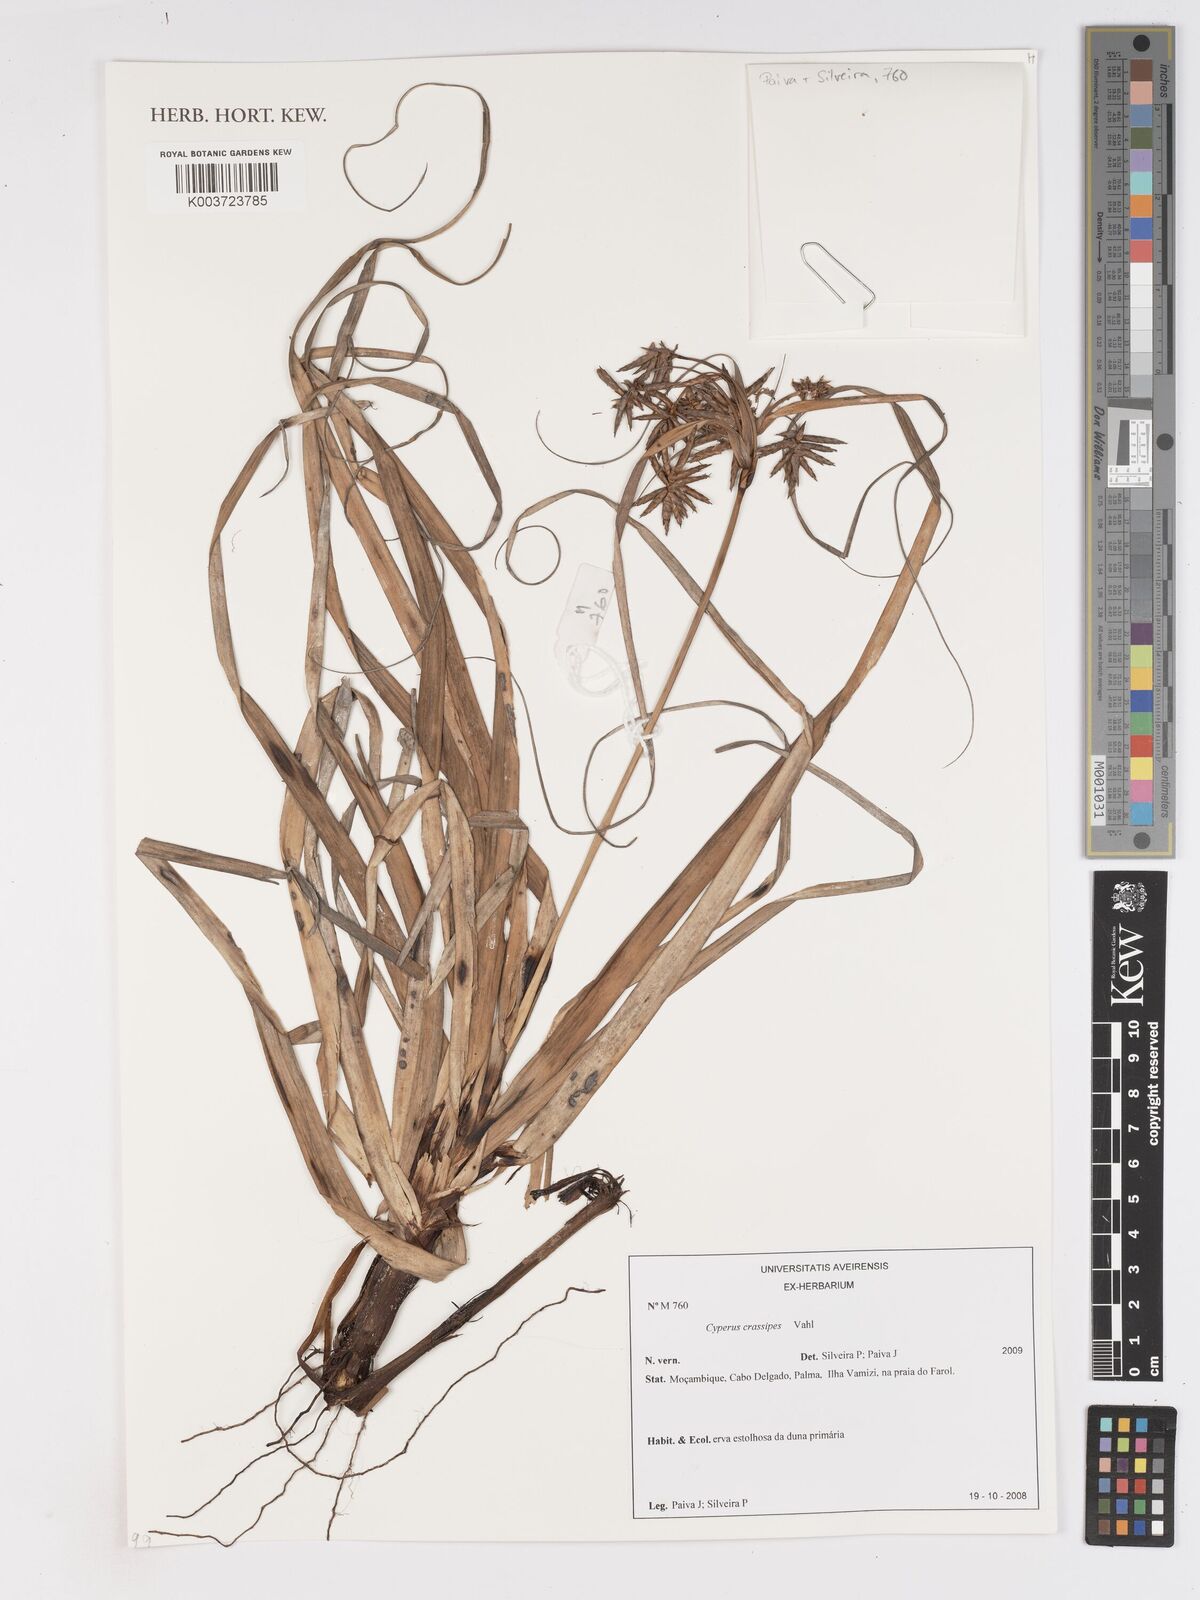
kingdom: Plantae
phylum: Tracheophyta
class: Liliopsida
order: Poales
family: Cyperaceae
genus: Cyperus
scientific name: Cyperus crassipes
